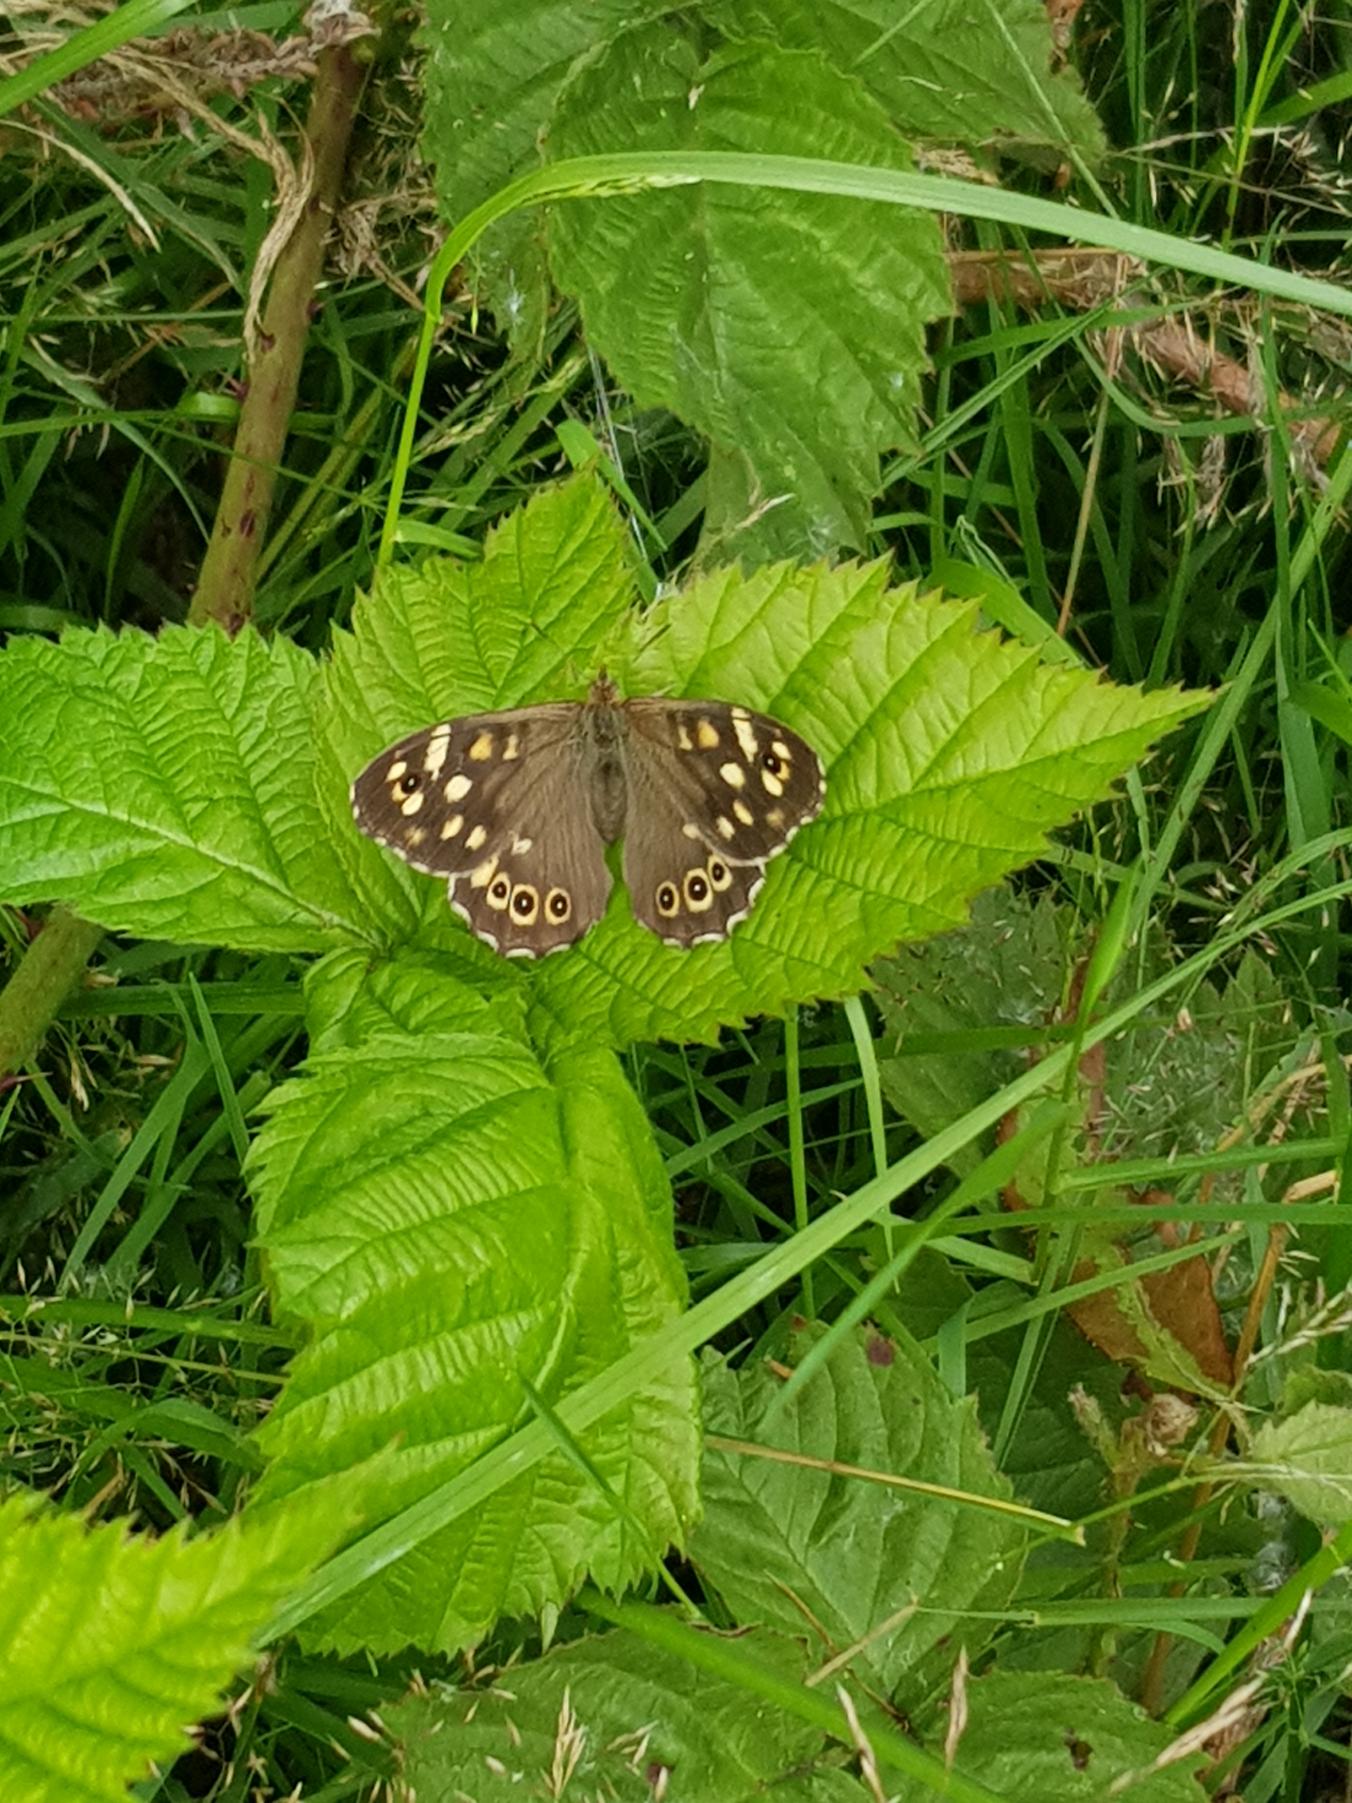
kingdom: Animalia
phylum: Arthropoda
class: Insecta
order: Lepidoptera
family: Nymphalidae
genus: Pararge
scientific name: Pararge aegeria
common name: Skovrandøje
